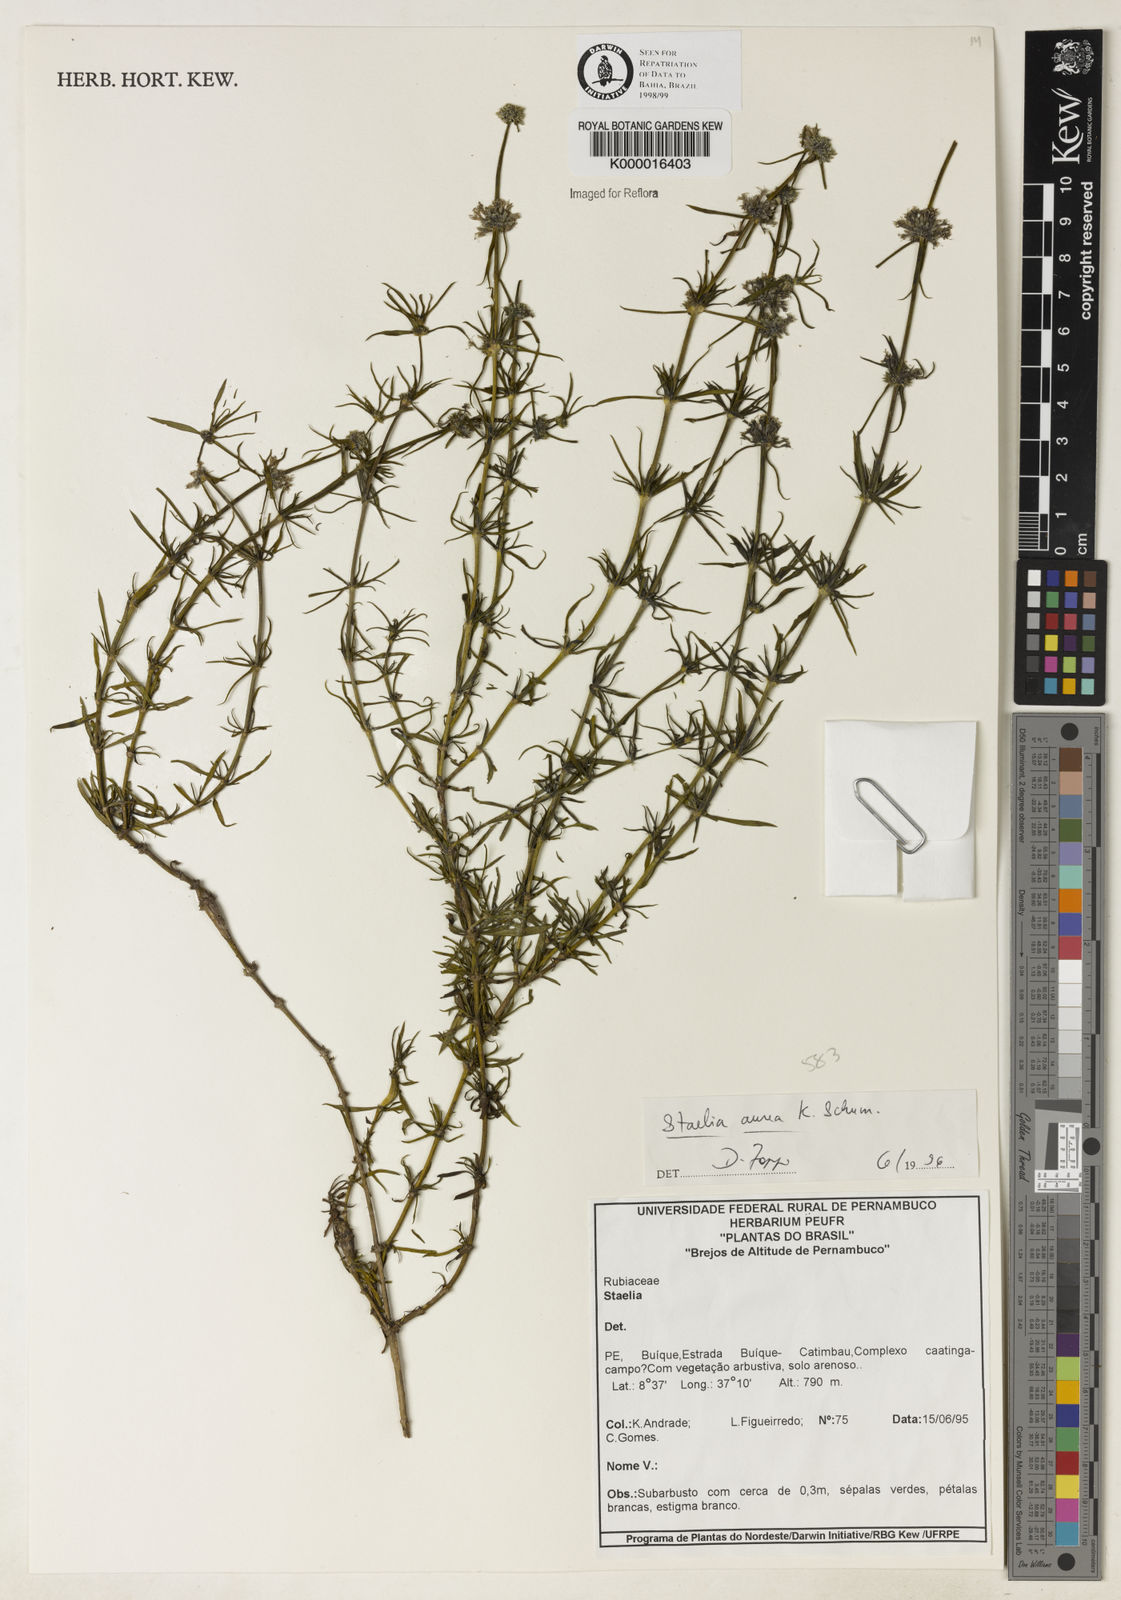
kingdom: Plantae
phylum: Tracheophyta
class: Magnoliopsida
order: Gentianales
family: Rubiaceae
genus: Staelia
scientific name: Staelia aurea
